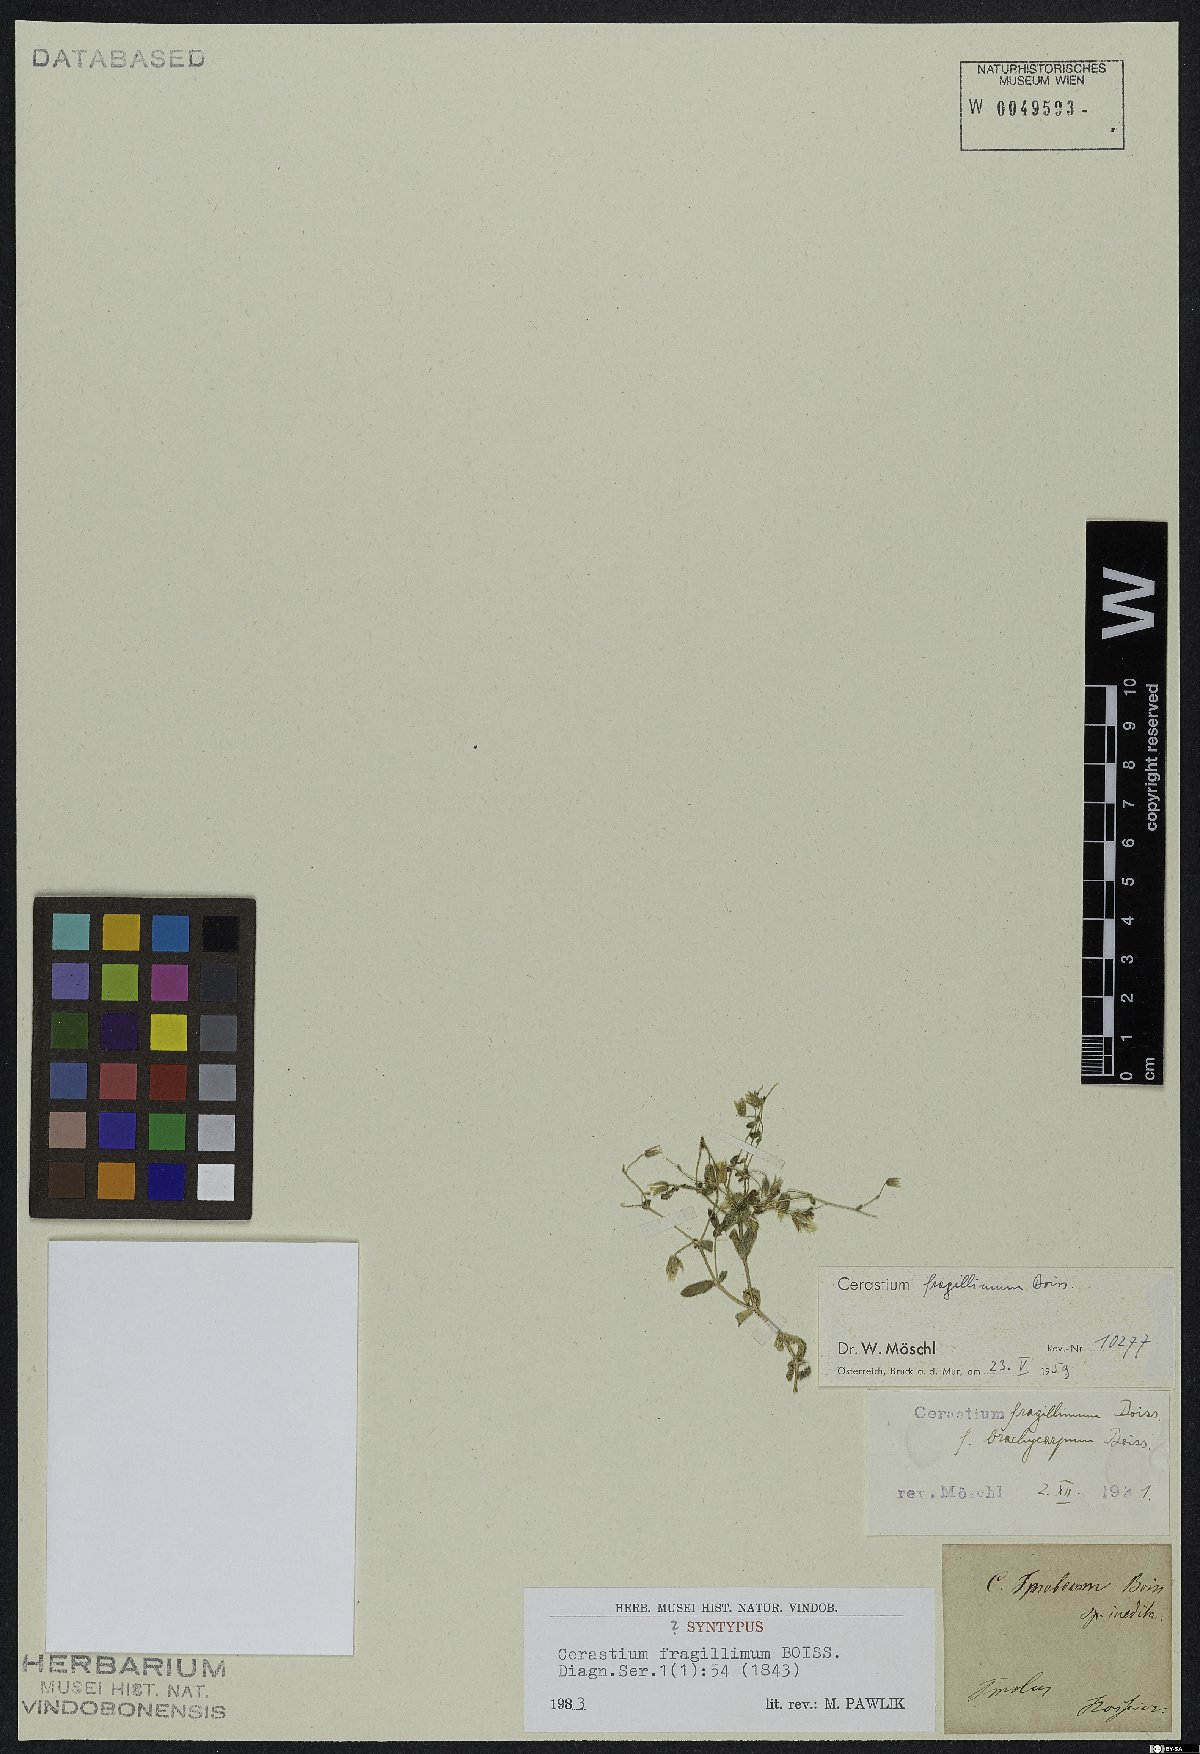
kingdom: Plantae
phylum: Tracheophyta
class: Magnoliopsida
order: Caryophyllales
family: Caryophyllaceae
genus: Cerastium
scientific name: Cerastium fragillimum
